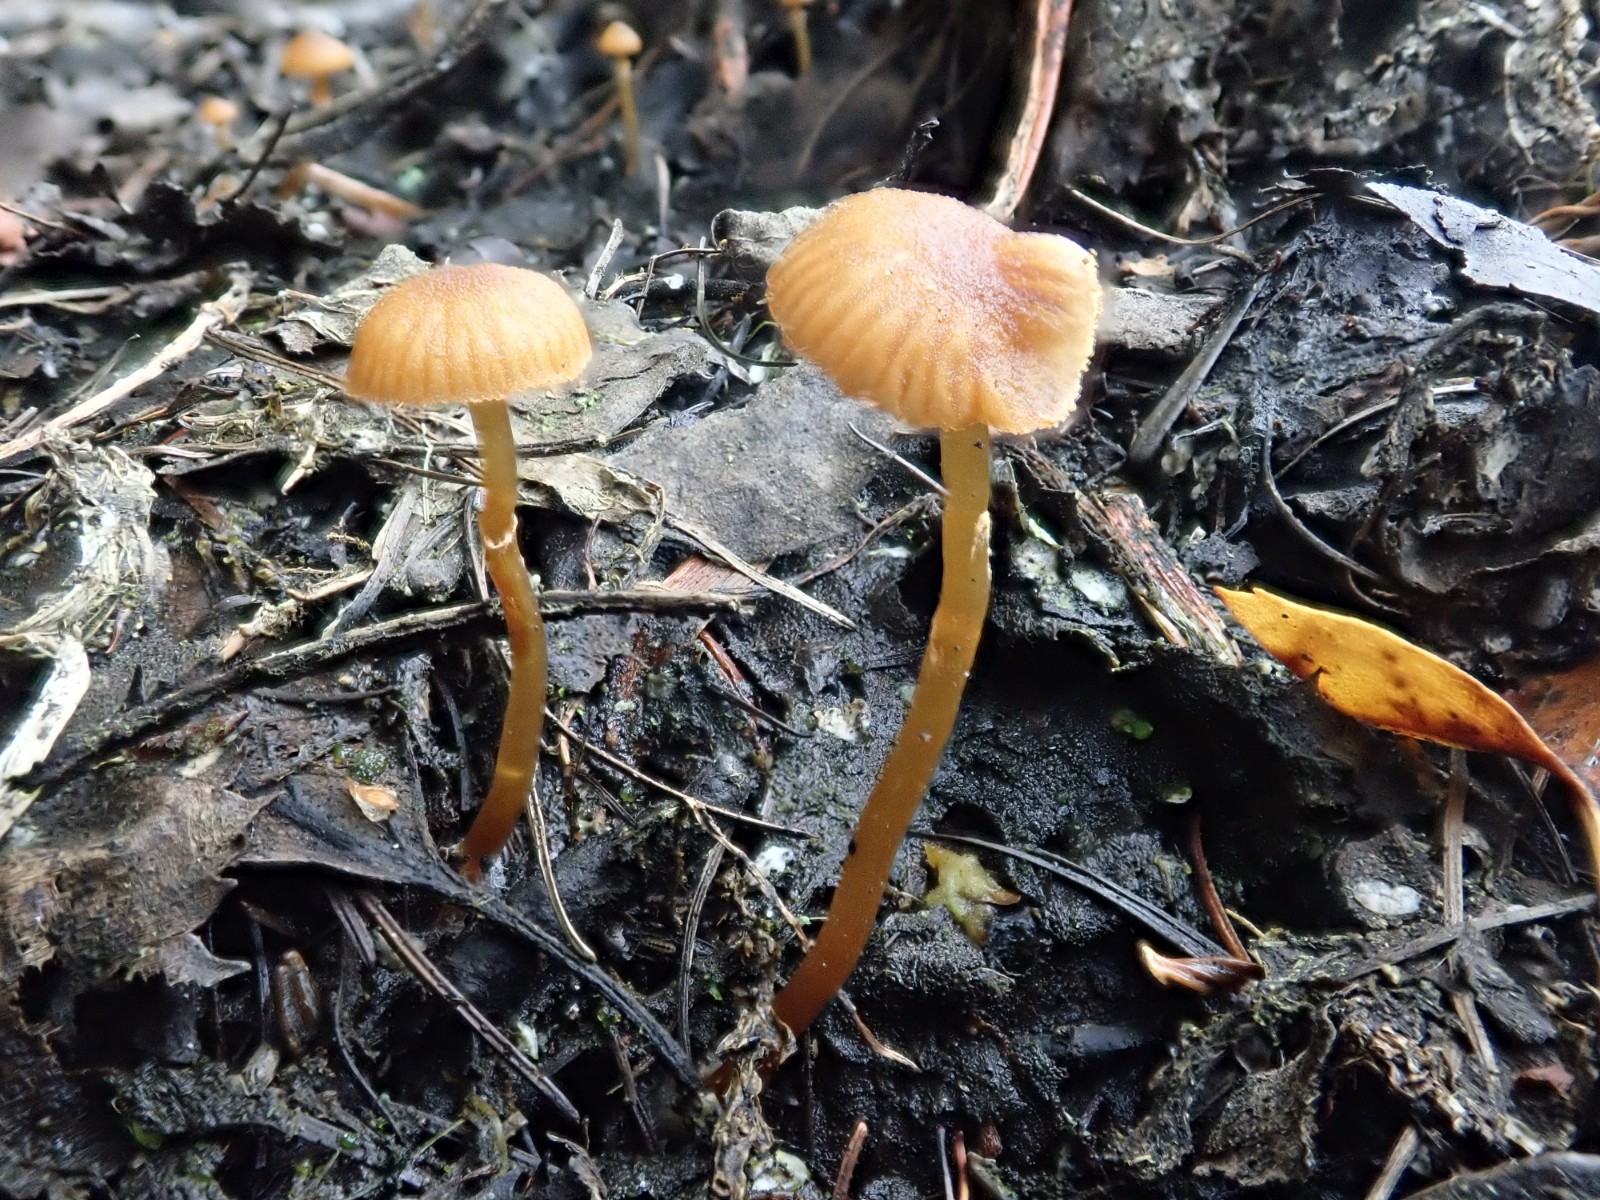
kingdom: Fungi
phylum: Basidiomycota
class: Agaricomycetes
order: Agaricales
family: Hymenogastraceae
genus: Galerina
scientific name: Galerina jaapii
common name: hvidbæltet hjelmhat
